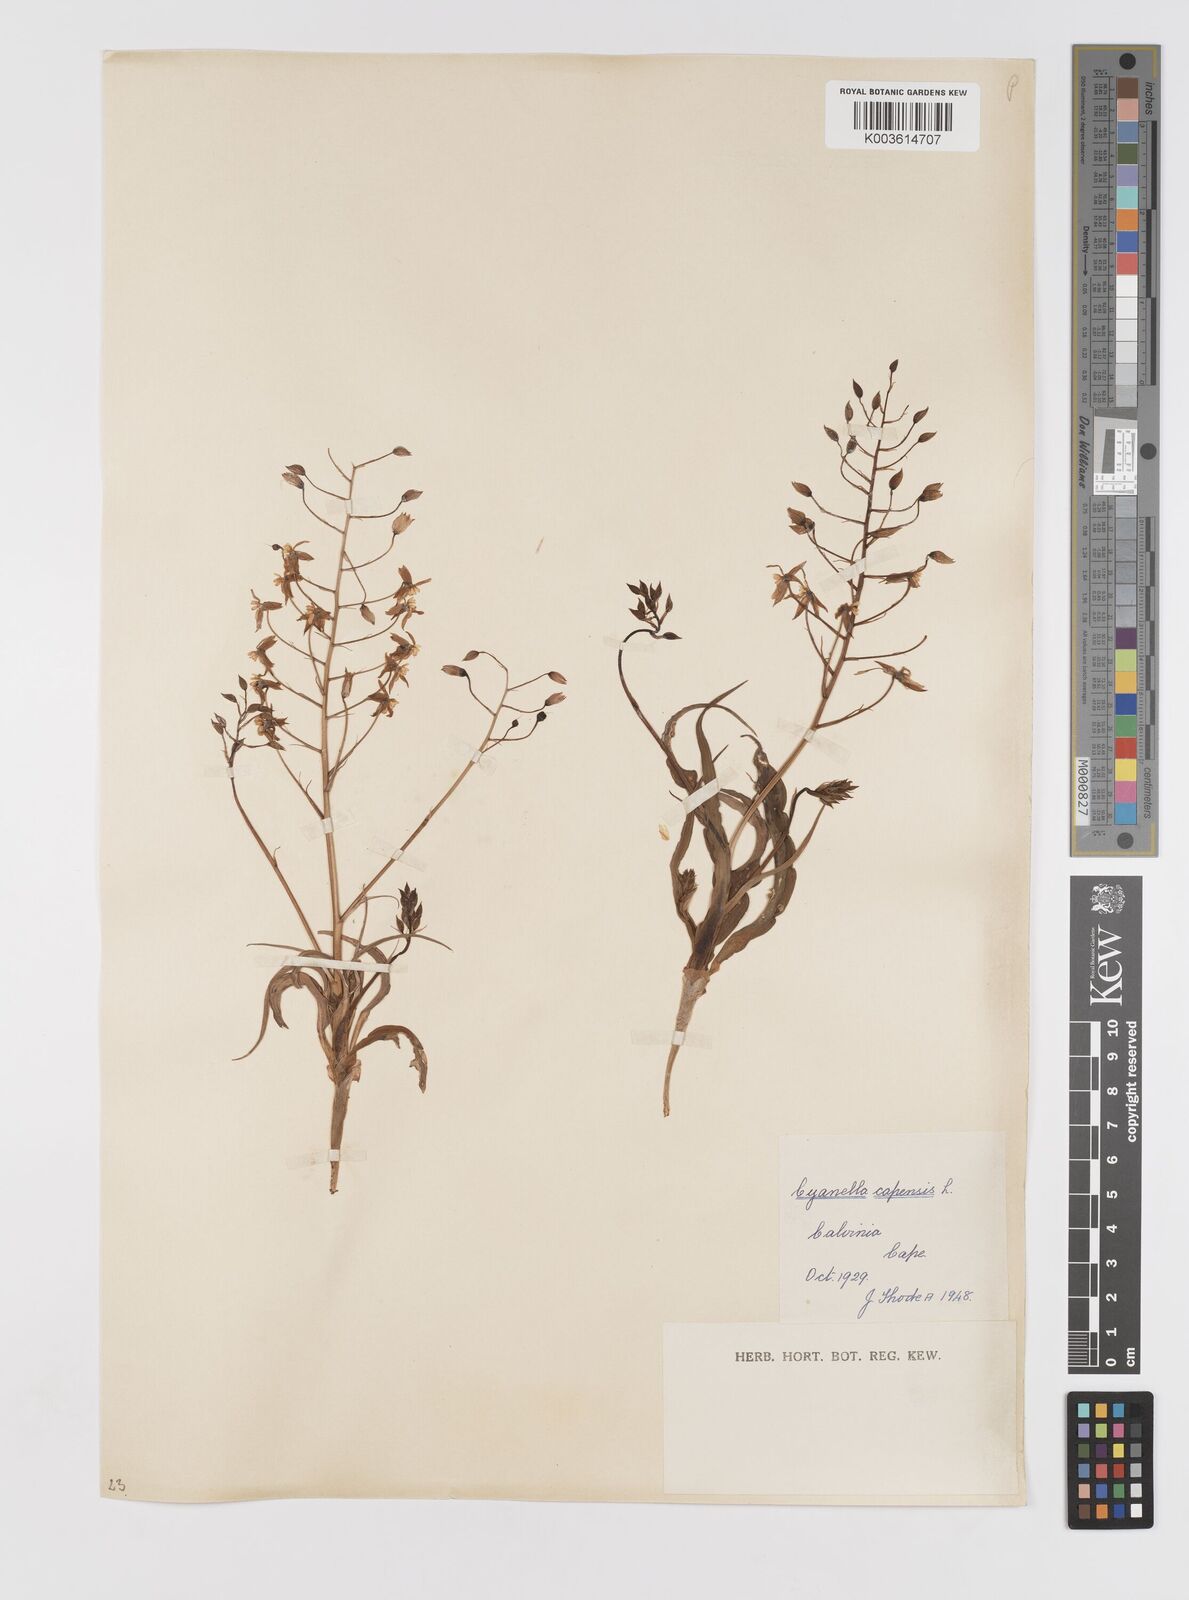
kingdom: Plantae
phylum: Tracheophyta
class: Liliopsida
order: Asparagales
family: Tecophilaeaceae
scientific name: Tecophilaeaceae
